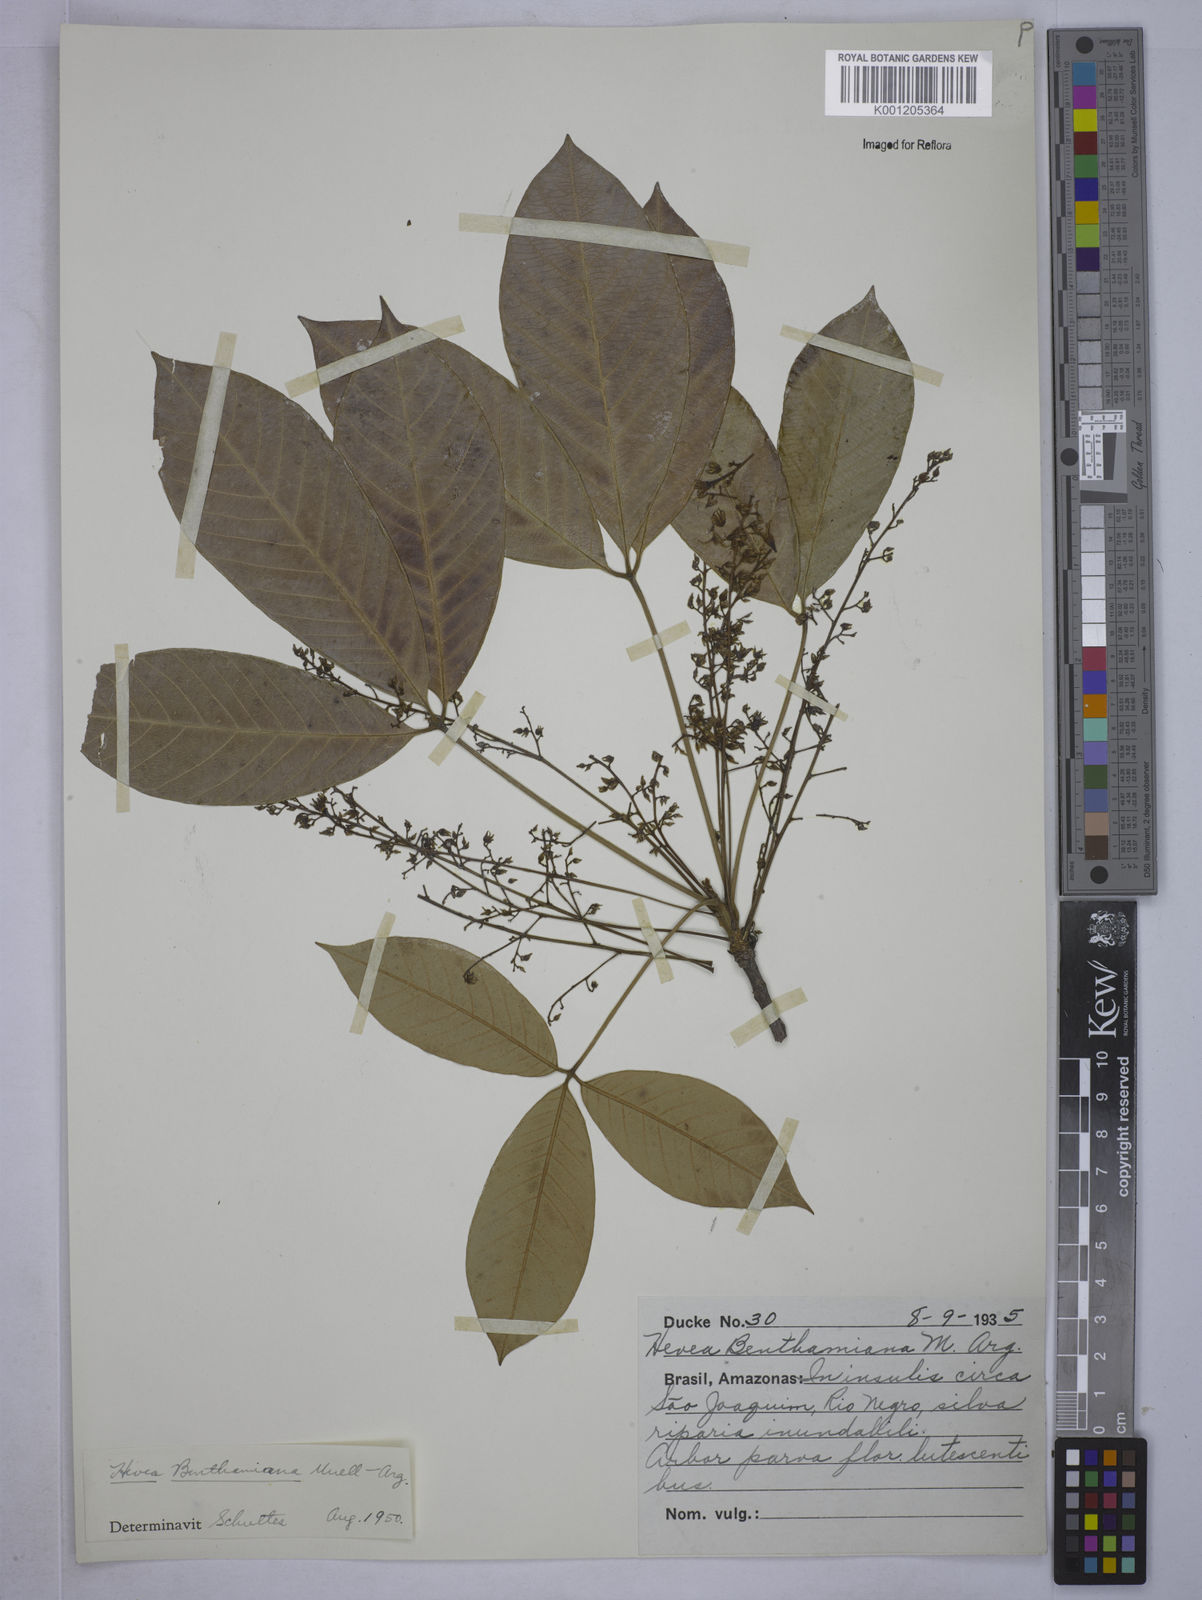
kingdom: Plantae
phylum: Tracheophyta
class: Magnoliopsida
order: Malpighiales
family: Euphorbiaceae
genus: Hevea
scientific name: Hevea
